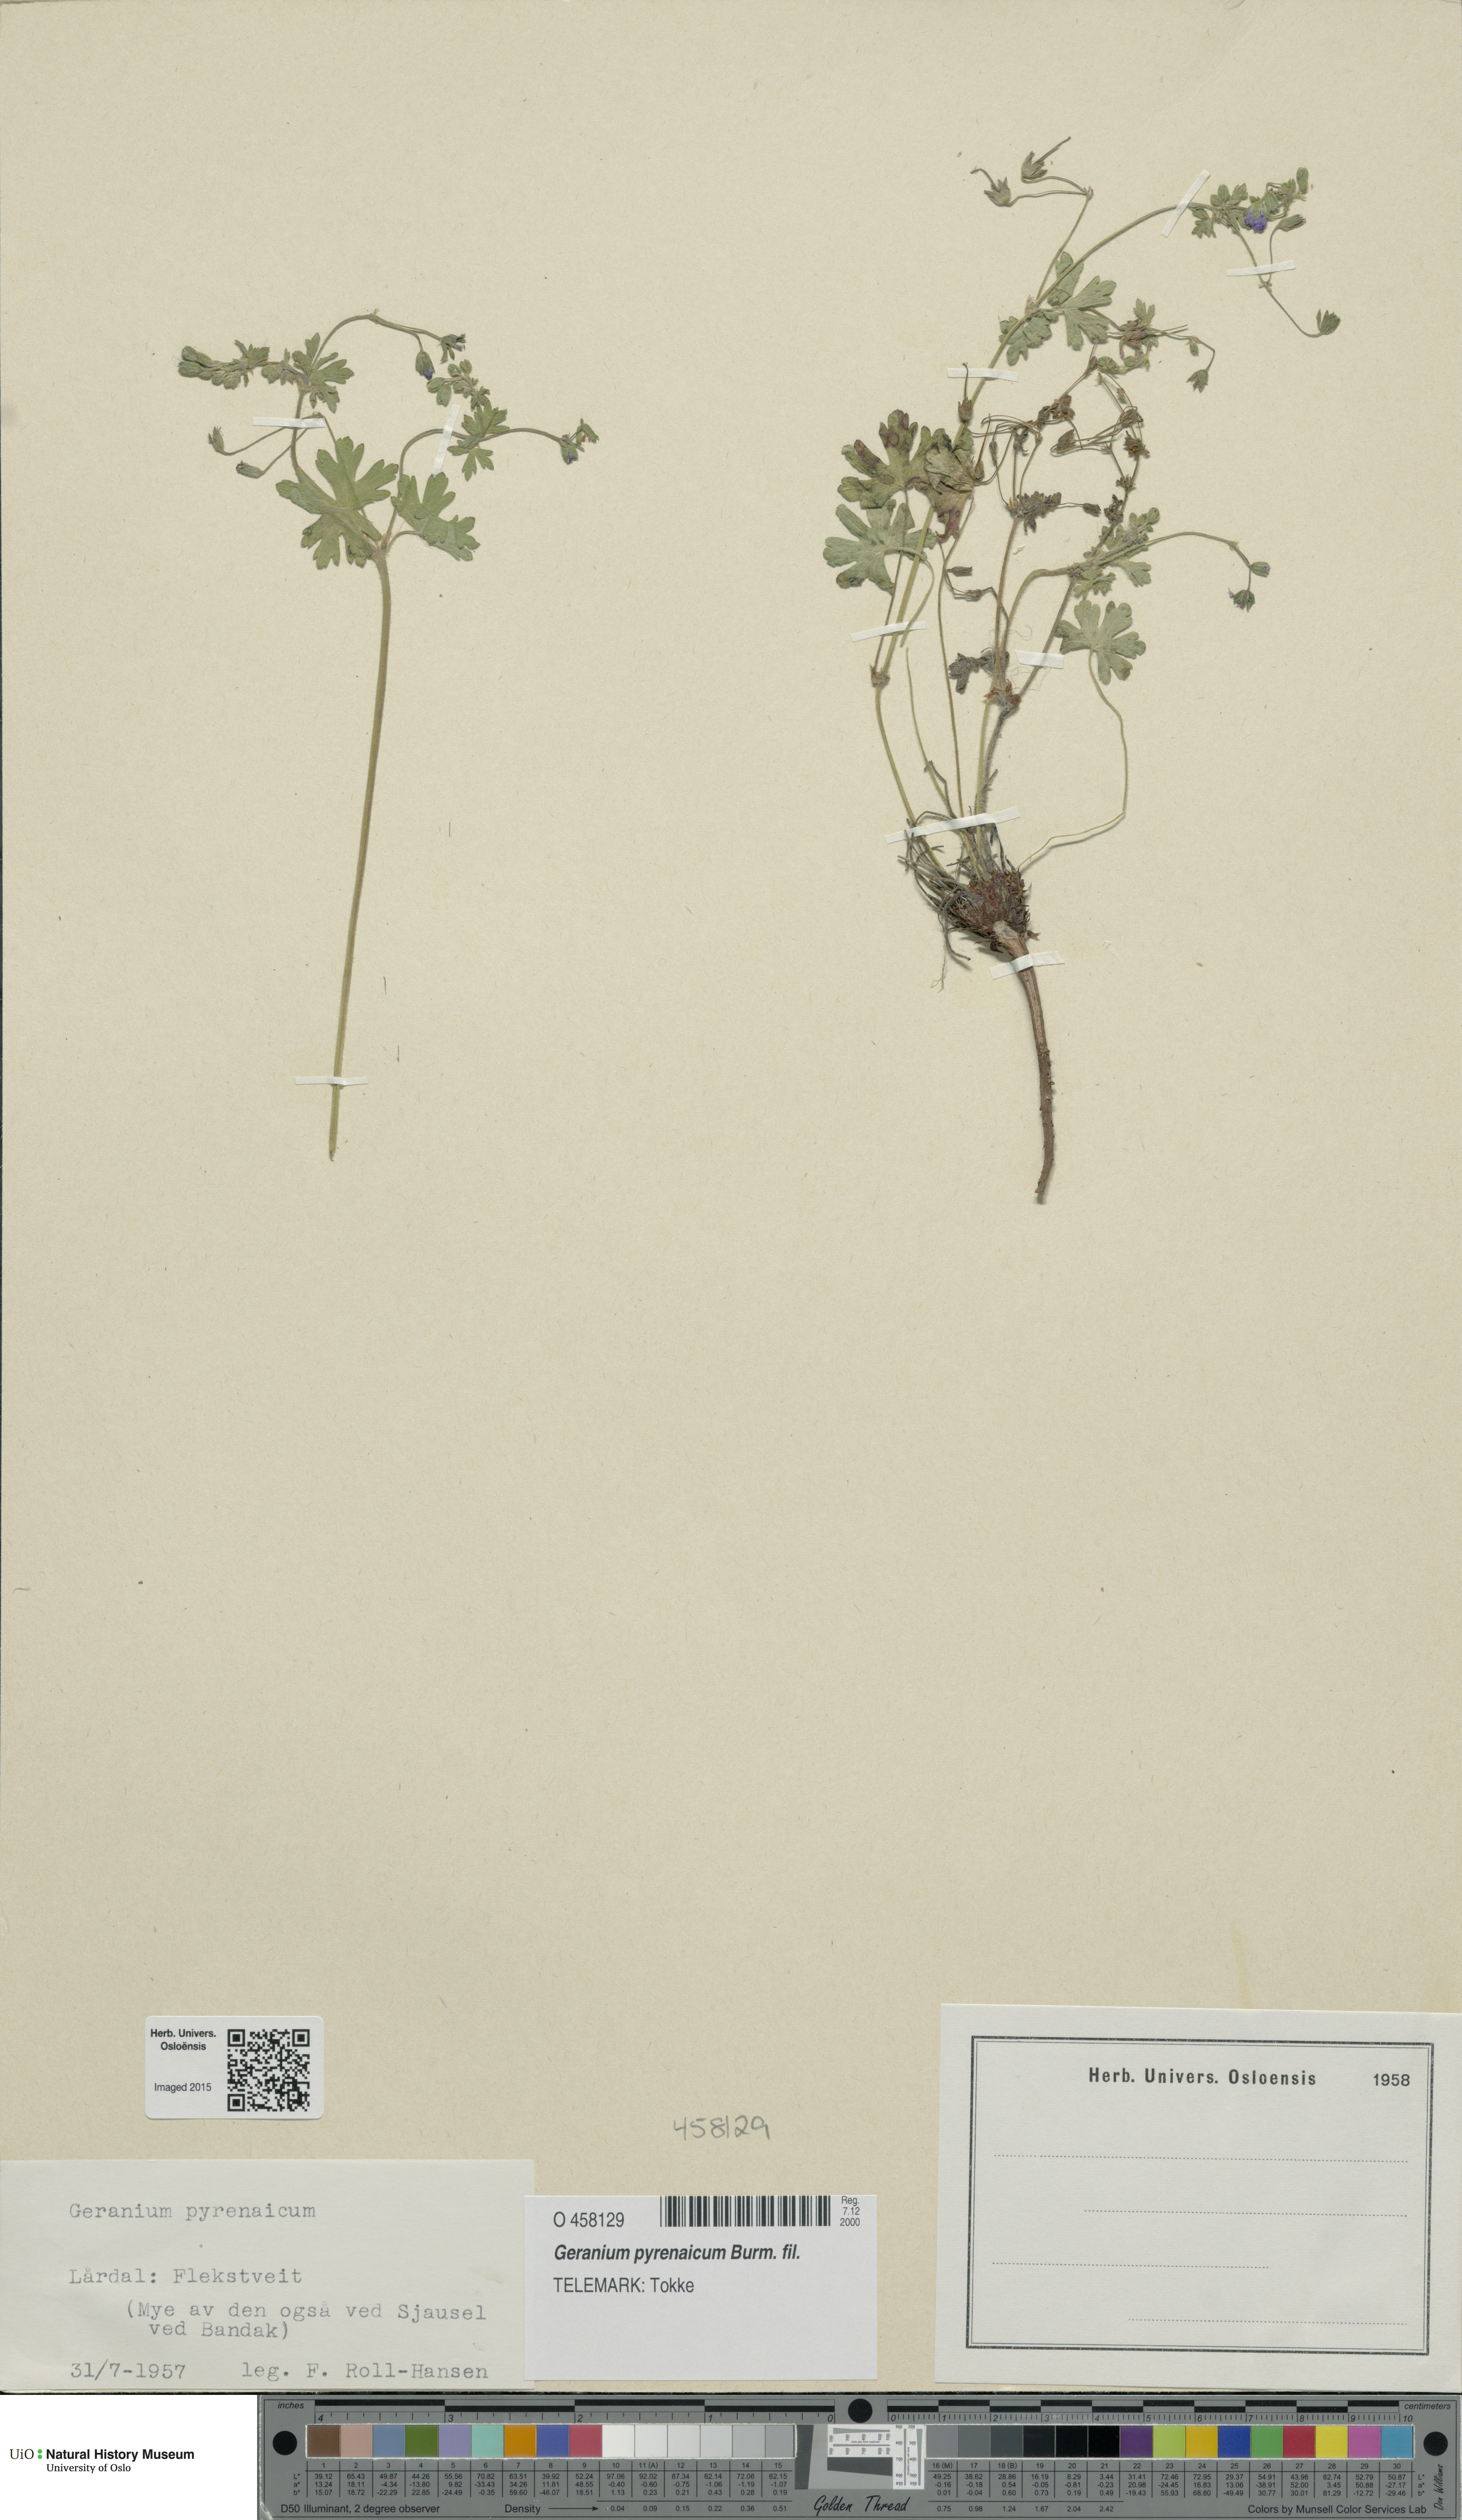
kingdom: Plantae
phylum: Tracheophyta
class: Magnoliopsida
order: Geraniales
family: Geraniaceae
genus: Geranium
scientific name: Geranium pyrenaicum
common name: Hedgerow crane's-bill
